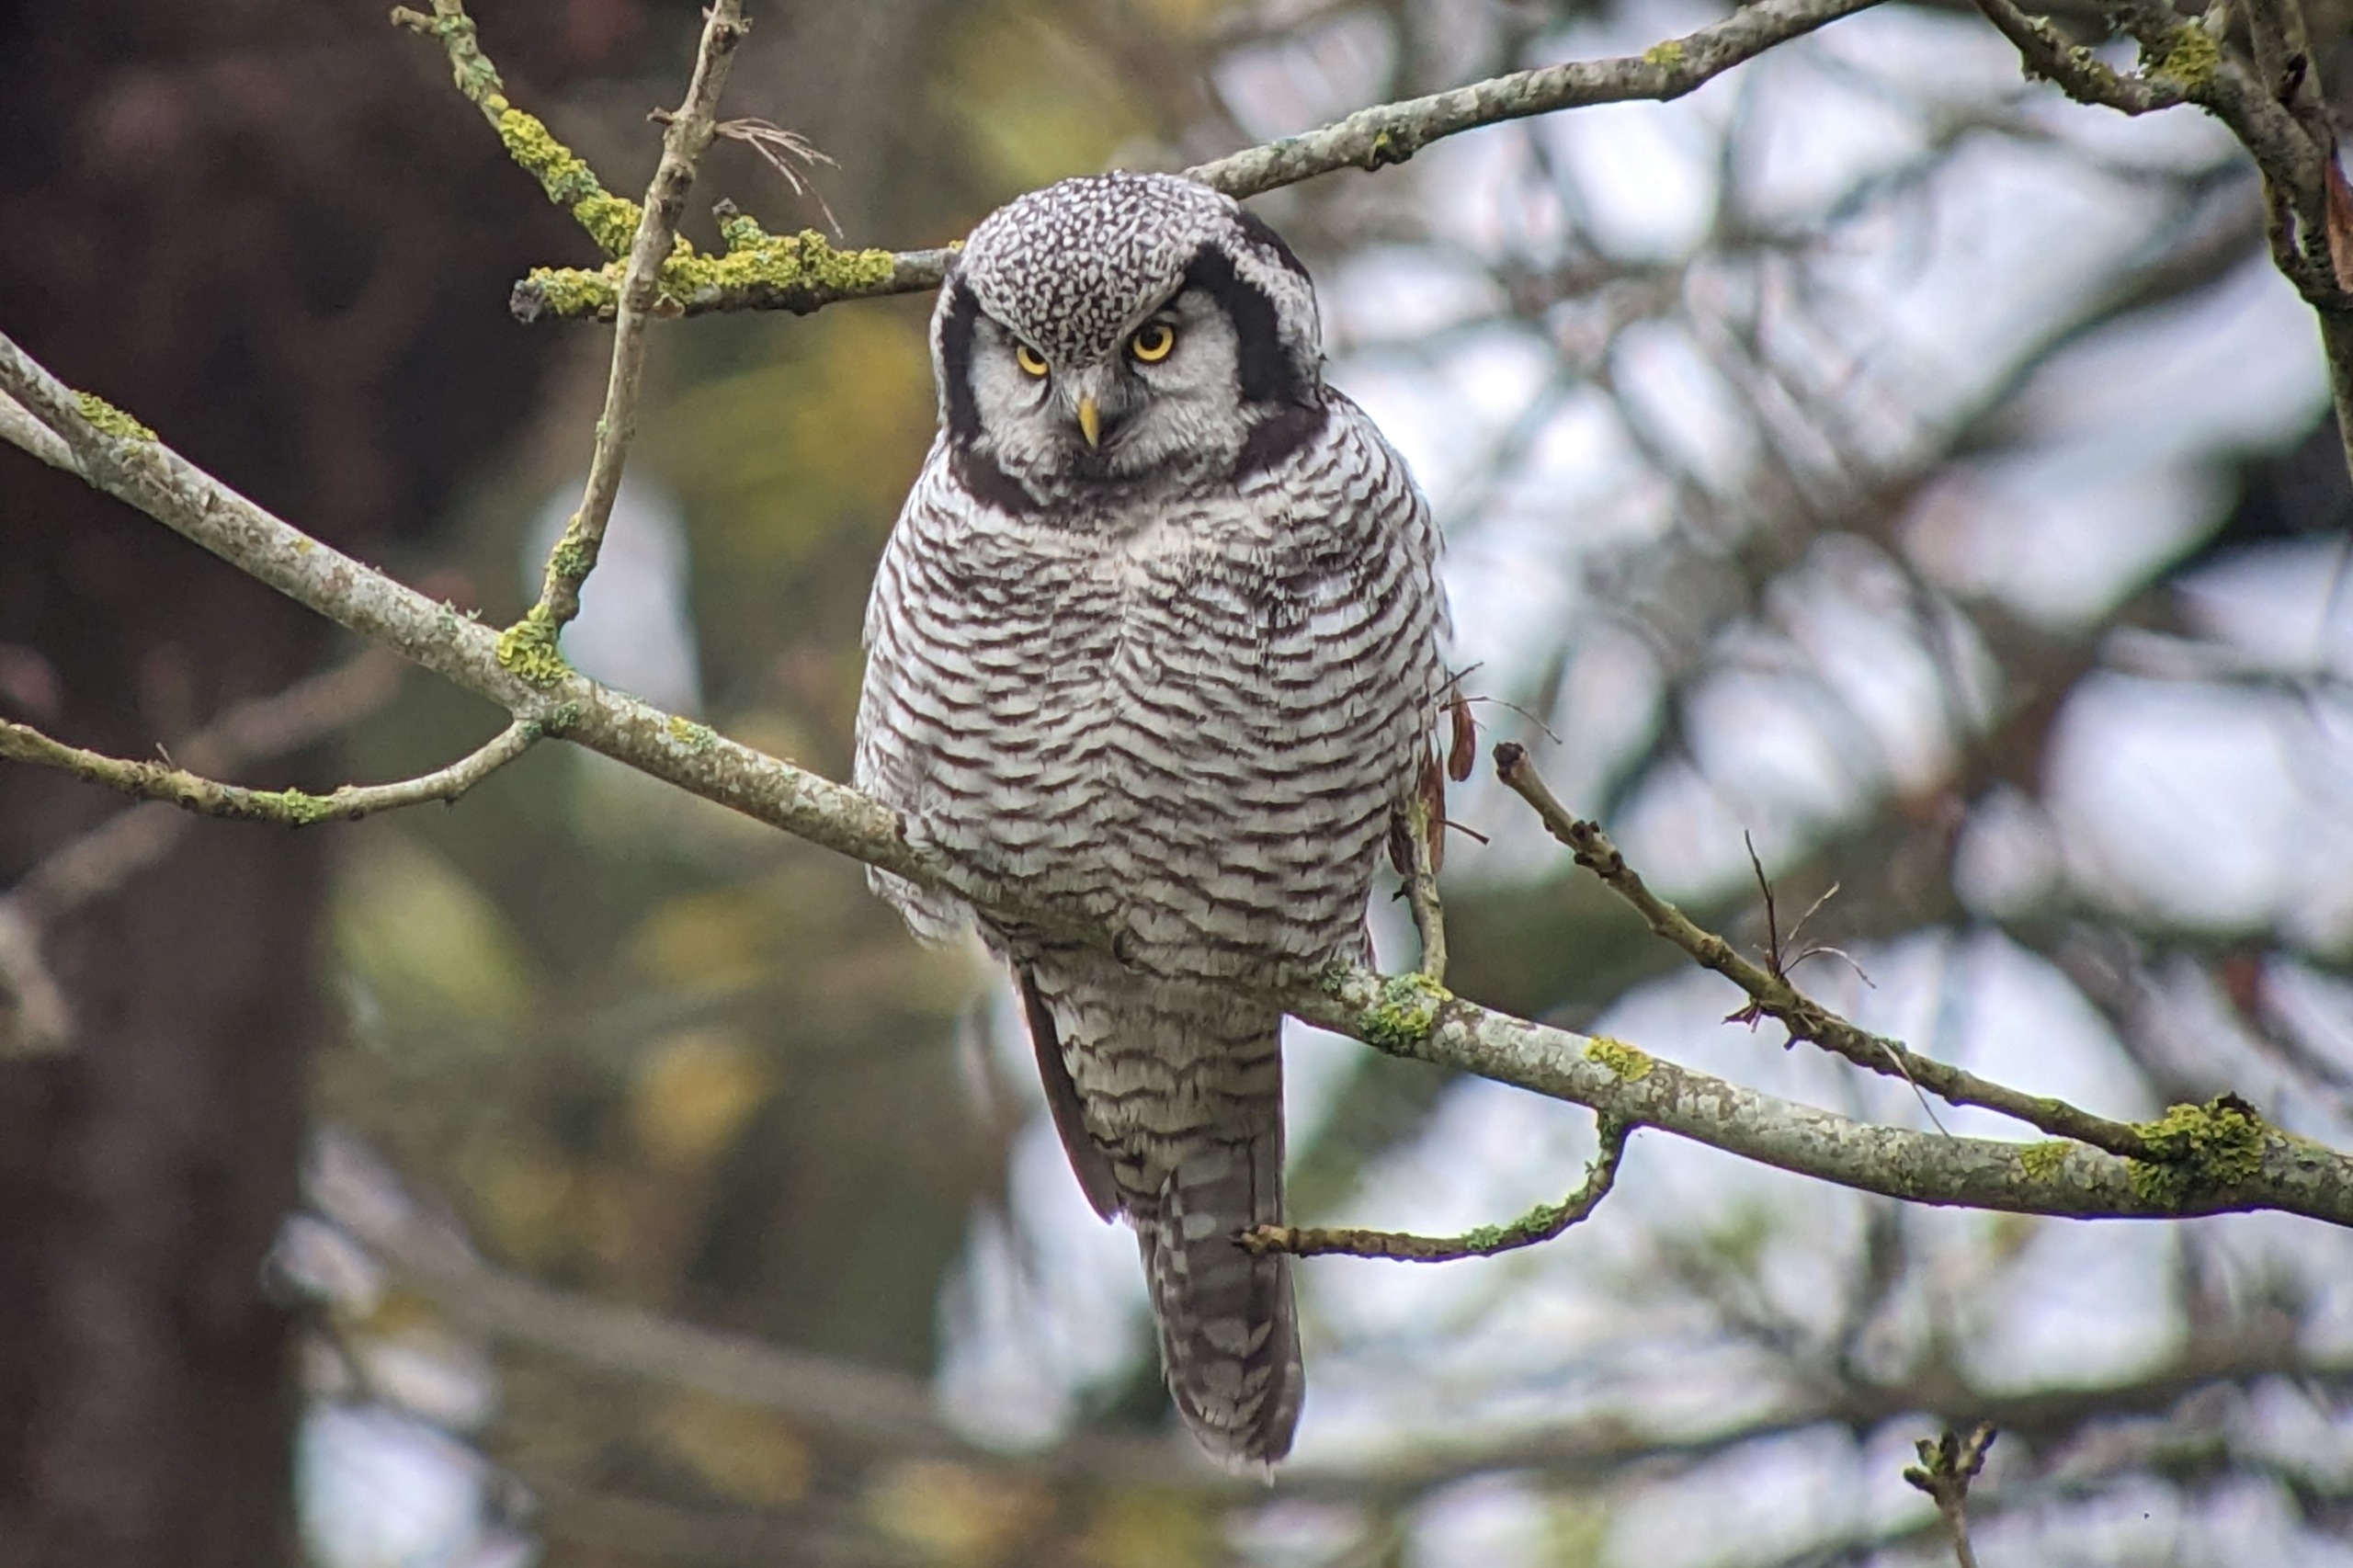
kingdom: Animalia
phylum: Chordata
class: Aves
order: Strigiformes
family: Strigidae
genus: Surnia
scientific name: Surnia ulula
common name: Høgeugle
